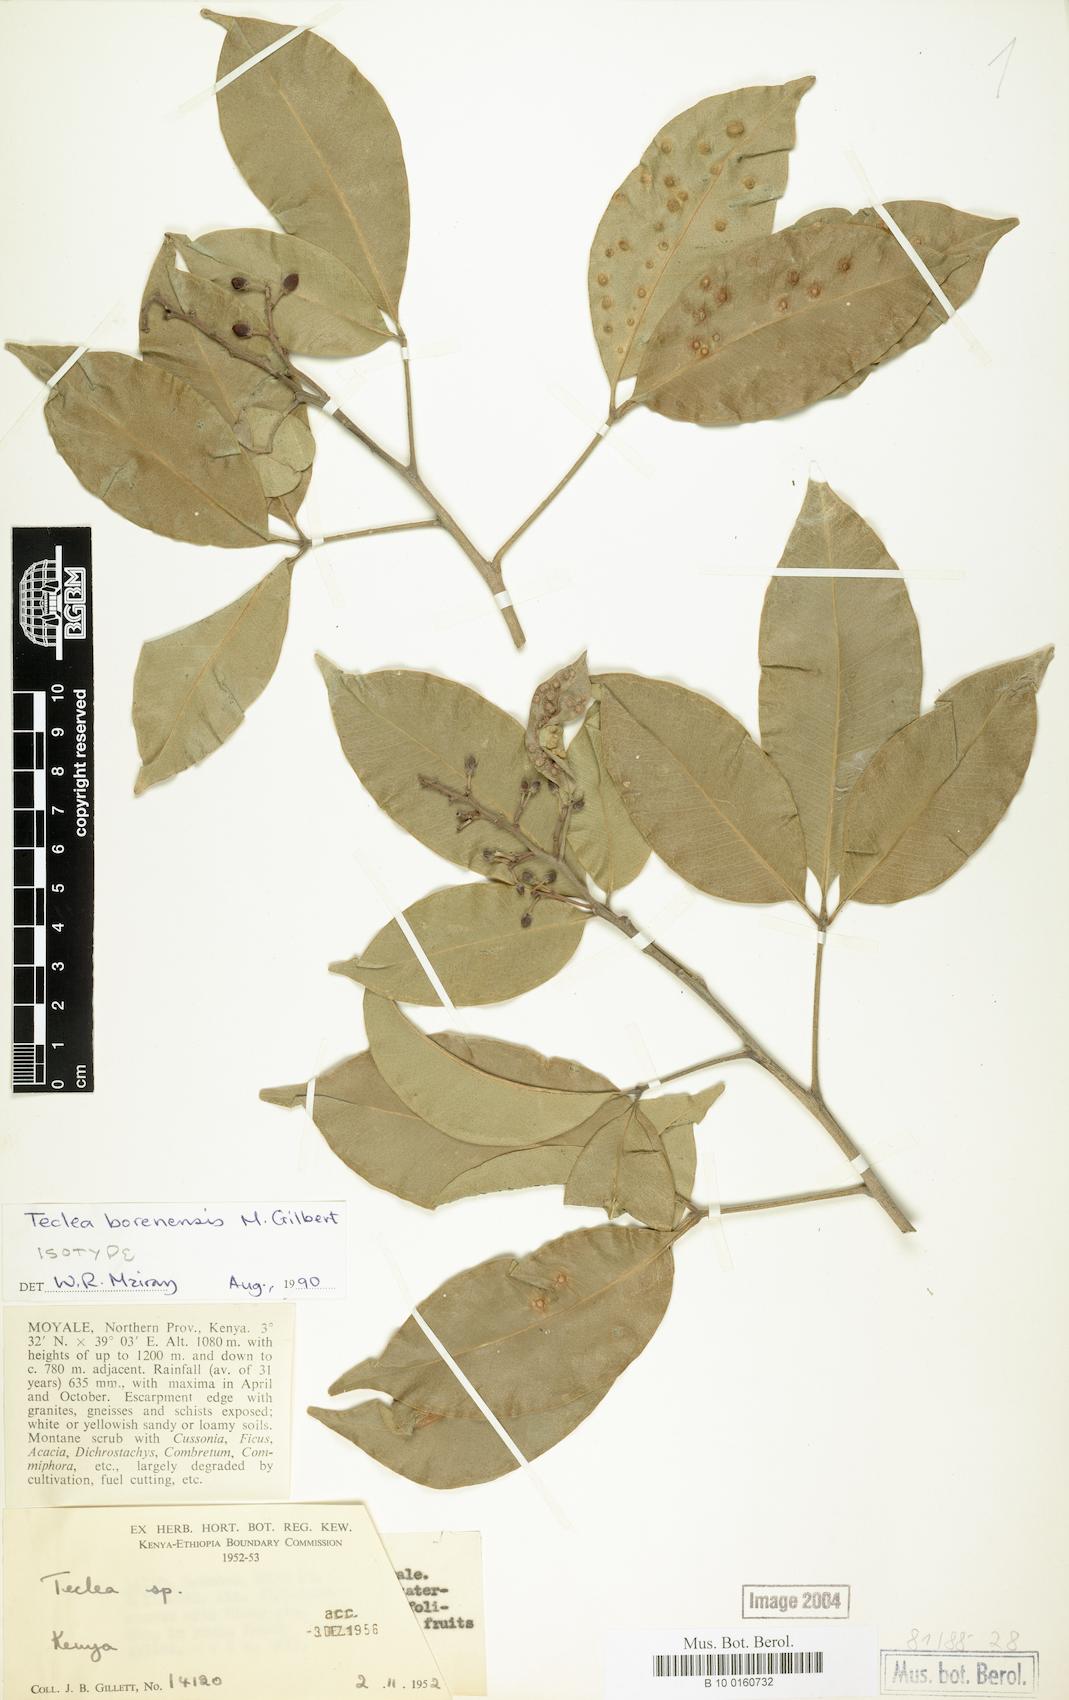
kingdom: Plantae
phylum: Tracheophyta
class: Magnoliopsida
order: Sapindales
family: Rutaceae
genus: Vepris
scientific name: Vepris borenensis
